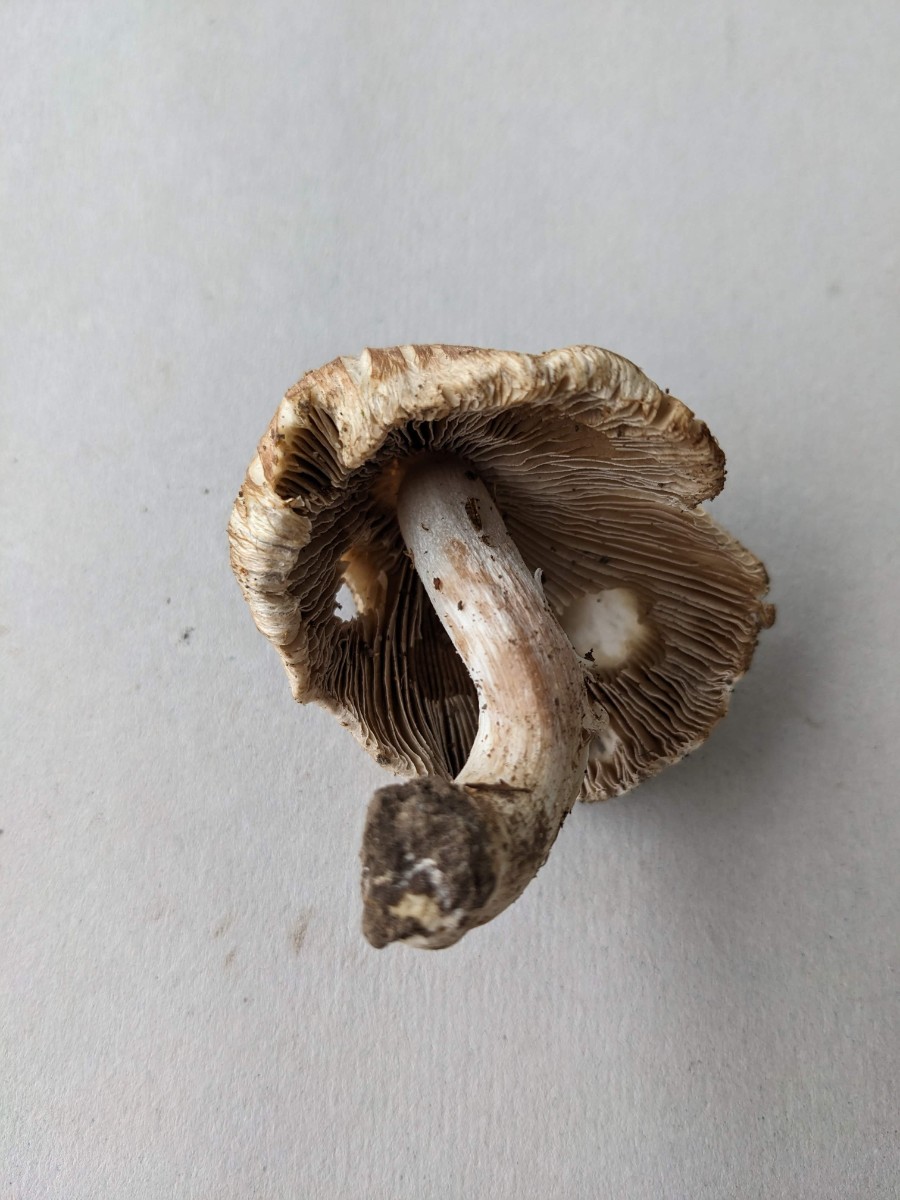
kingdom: Fungi
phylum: Basidiomycota
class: Agaricomycetes
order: Agaricales
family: Inocybaceae
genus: Inosperma
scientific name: Inosperma
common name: Trævlhat
